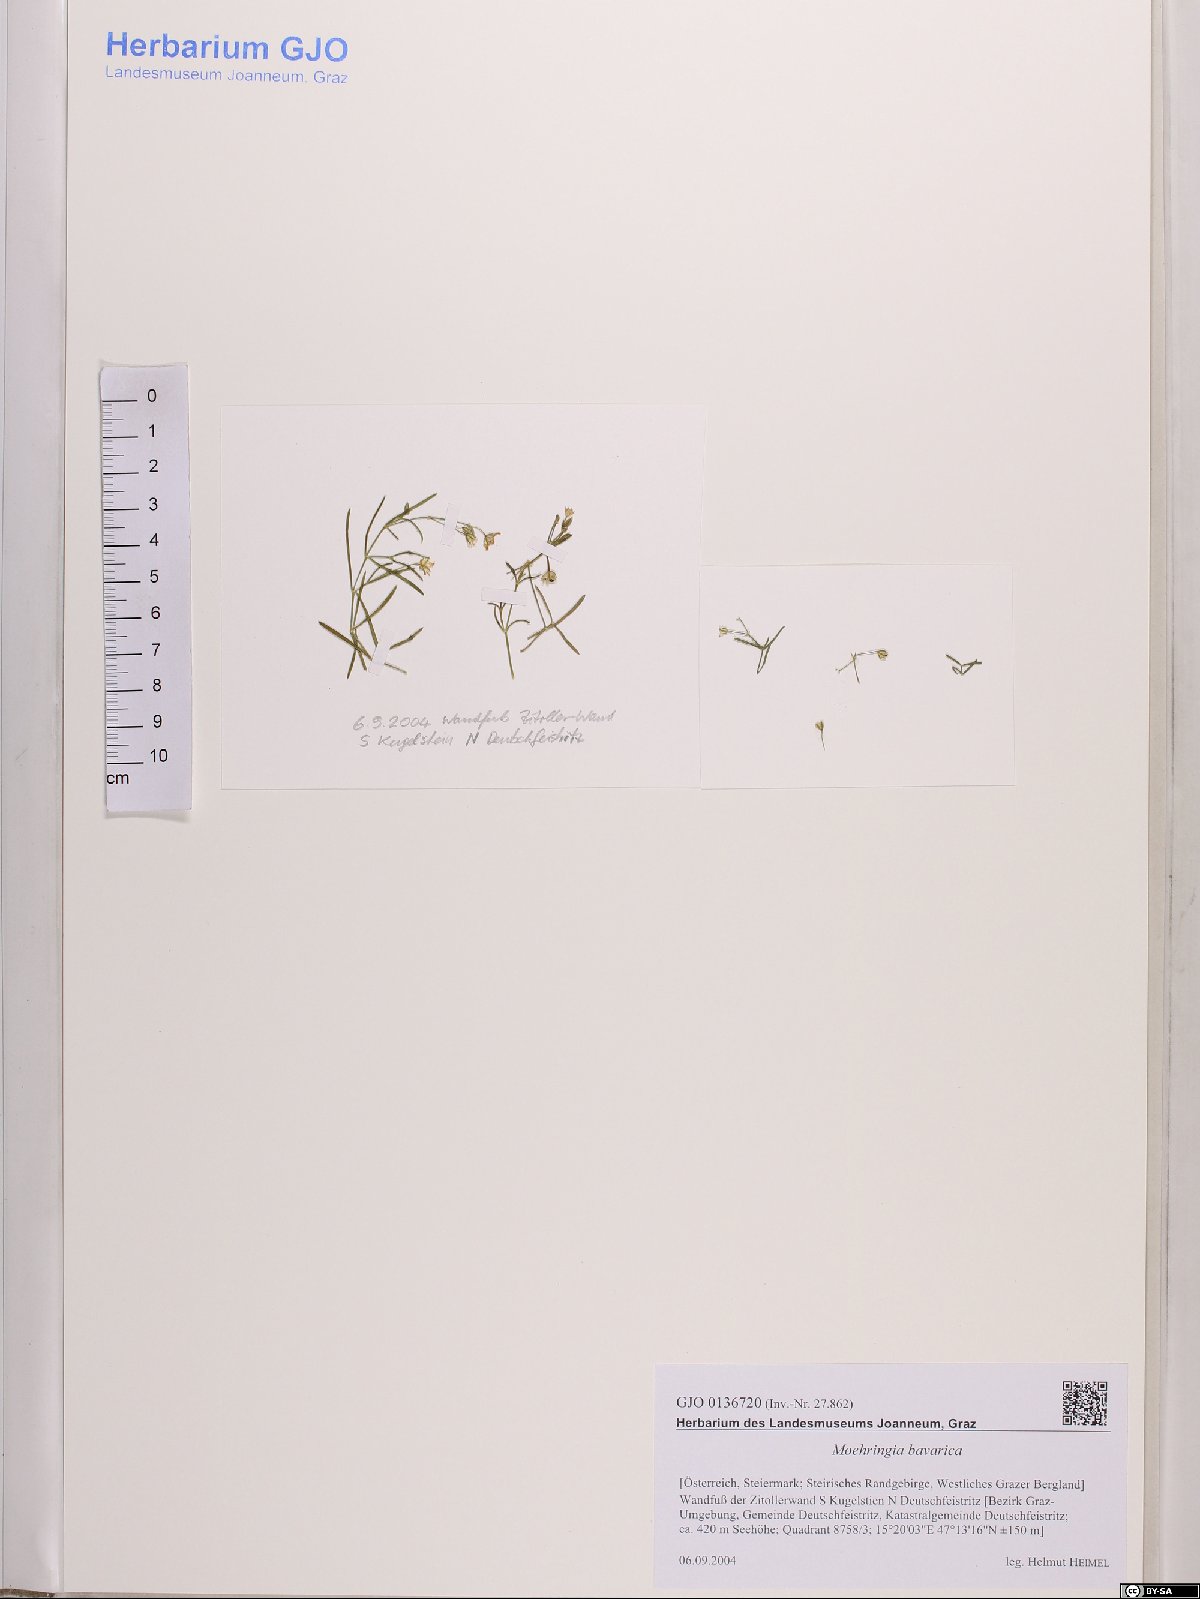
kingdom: Plantae
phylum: Tracheophyta
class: Magnoliopsida
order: Caryophyllales
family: Caryophyllaceae
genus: Moehringia
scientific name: Moehringia bavarica
